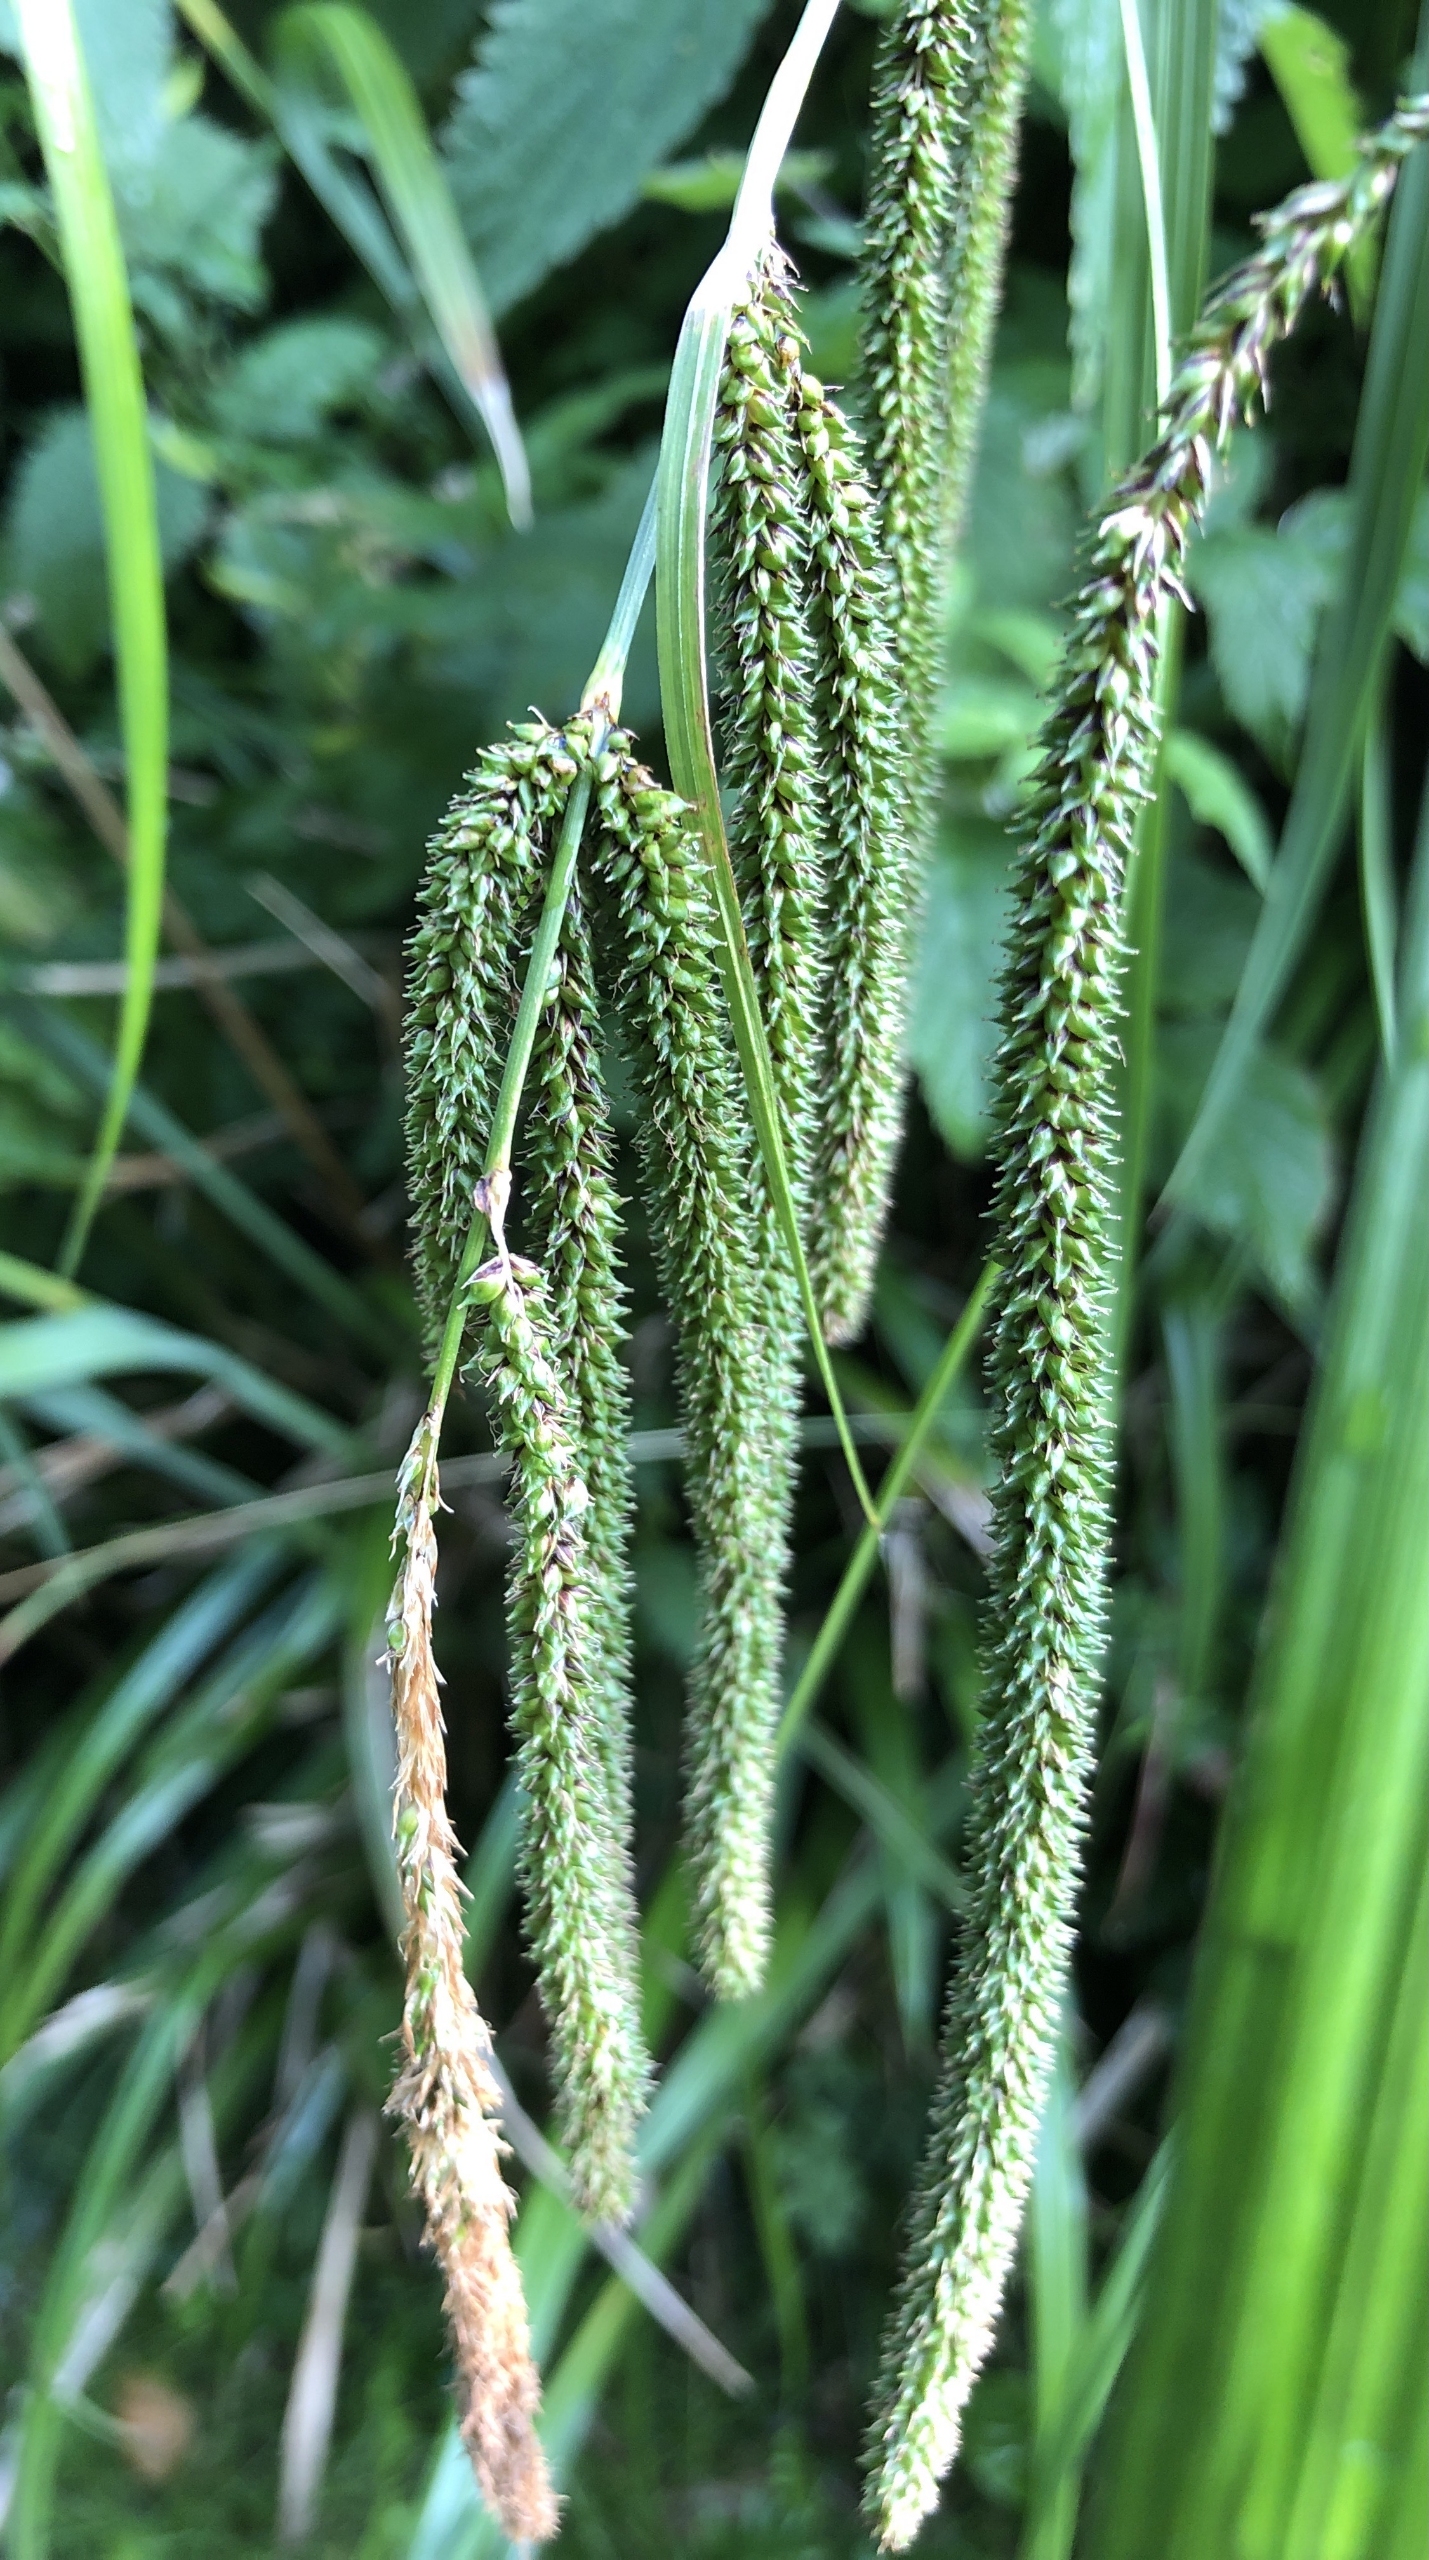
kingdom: Plantae
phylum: Tracheophyta
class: Liliopsida
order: Poales
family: Cyperaceae
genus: Carex
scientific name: Carex pendula
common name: Kæmpe-star
